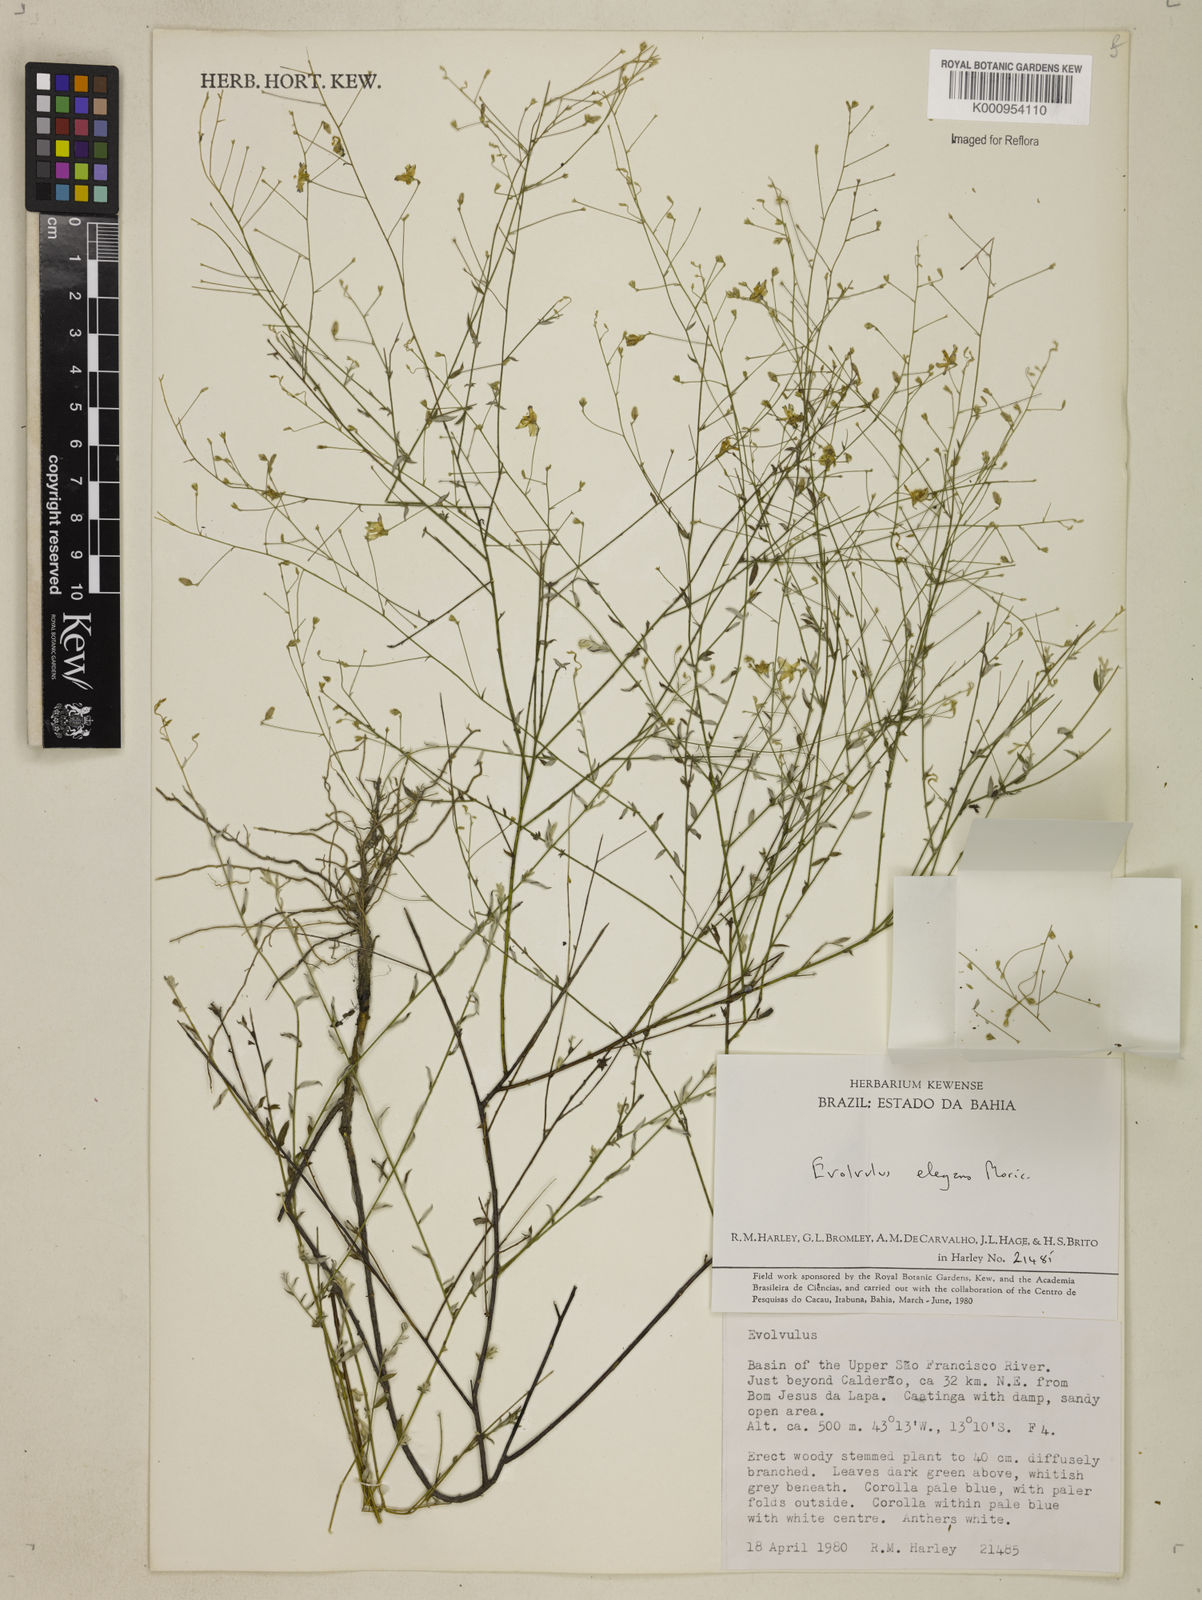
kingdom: Plantae
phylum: Tracheophyta
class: Magnoliopsida
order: Solanales
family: Convolvulaceae
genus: Evolvulus
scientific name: Evolvulus elegans
